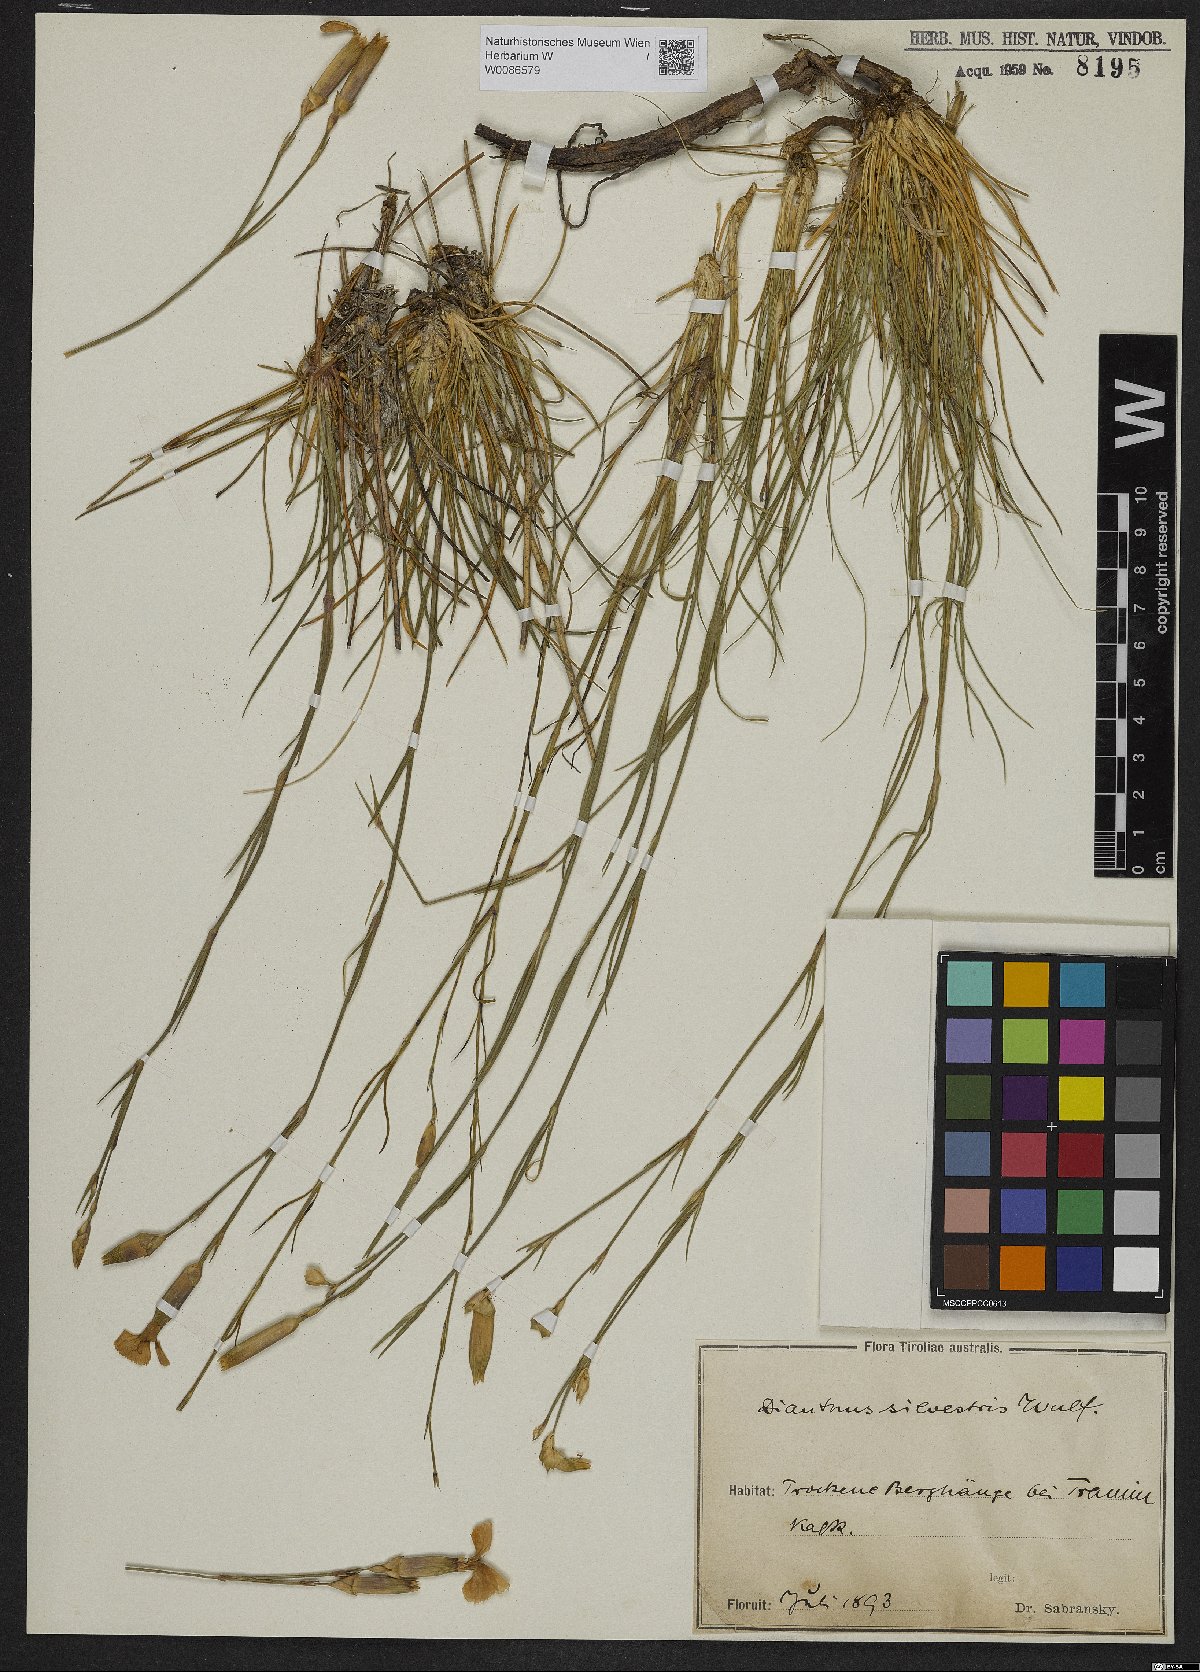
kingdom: Plantae
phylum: Tracheophyta
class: Magnoliopsida
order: Caryophyllales
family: Caryophyllaceae
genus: Dianthus
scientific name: Dianthus sylvestris
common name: Wood pink
